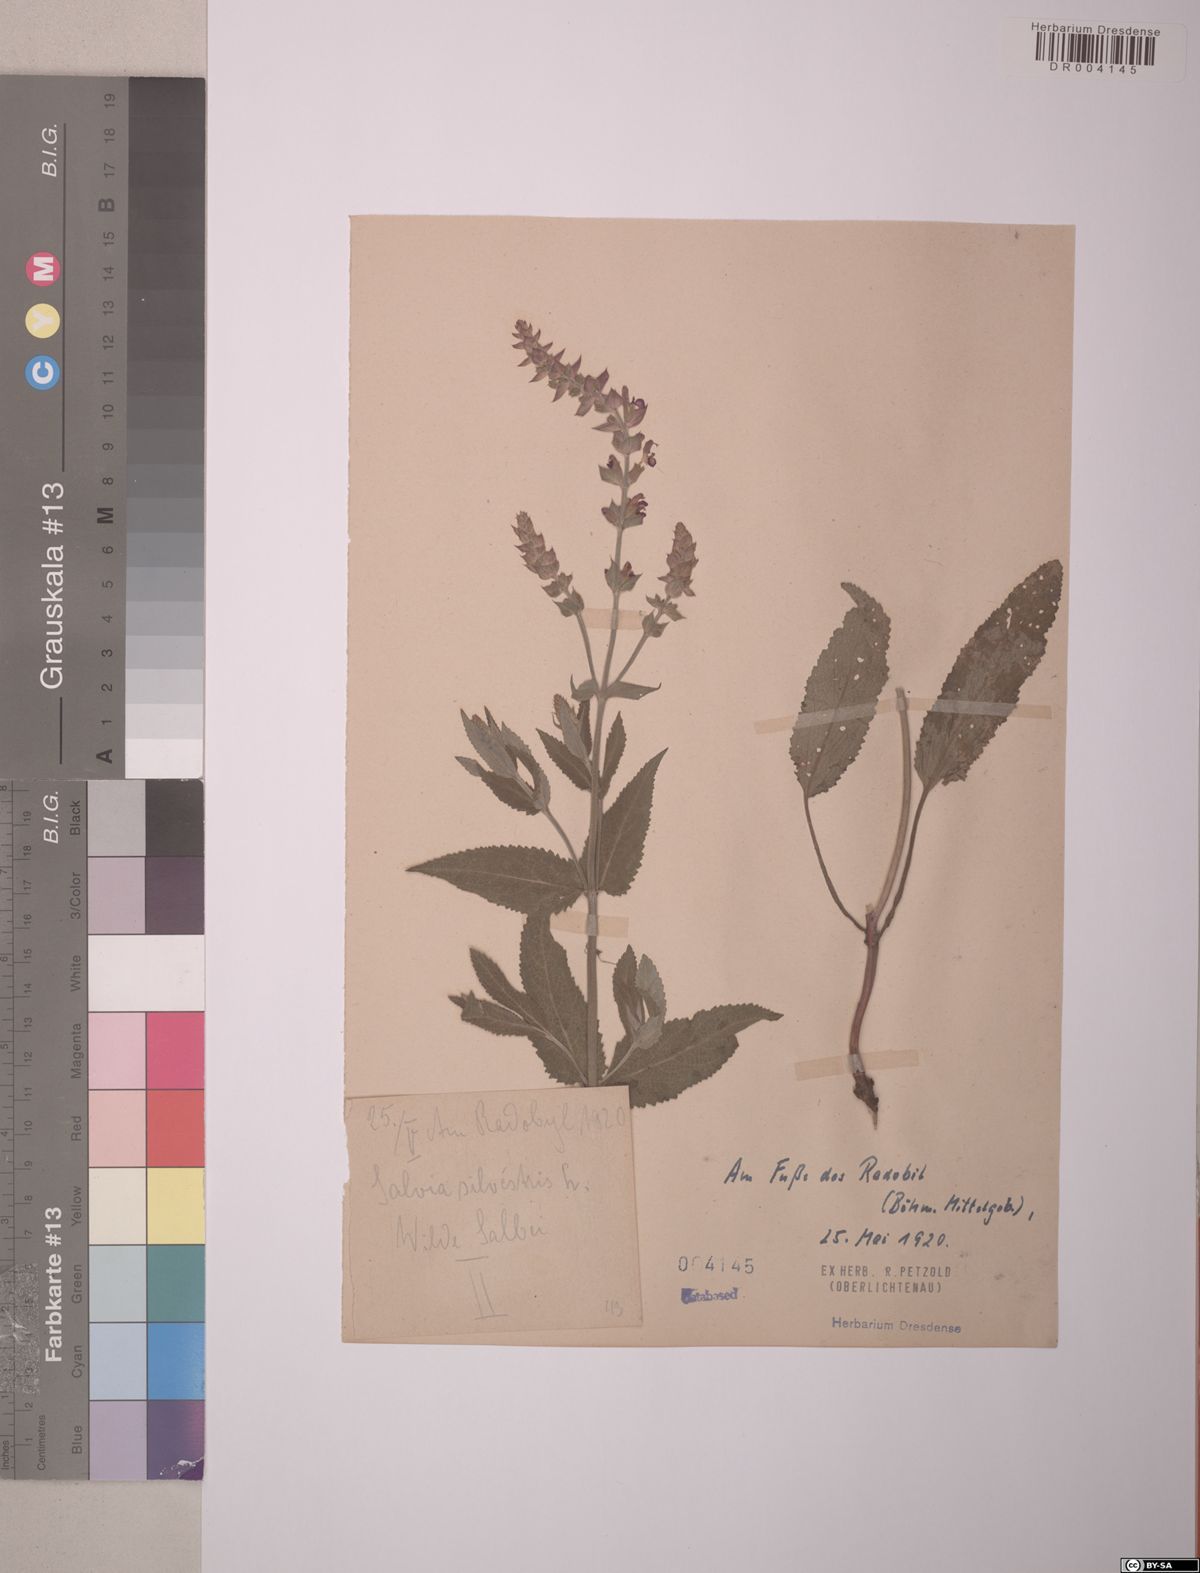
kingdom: Plantae
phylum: Tracheophyta
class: Magnoliopsida
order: Lamiales
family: Lamiaceae
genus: Salvia
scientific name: Salvia sylvestris
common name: Woodland sage
